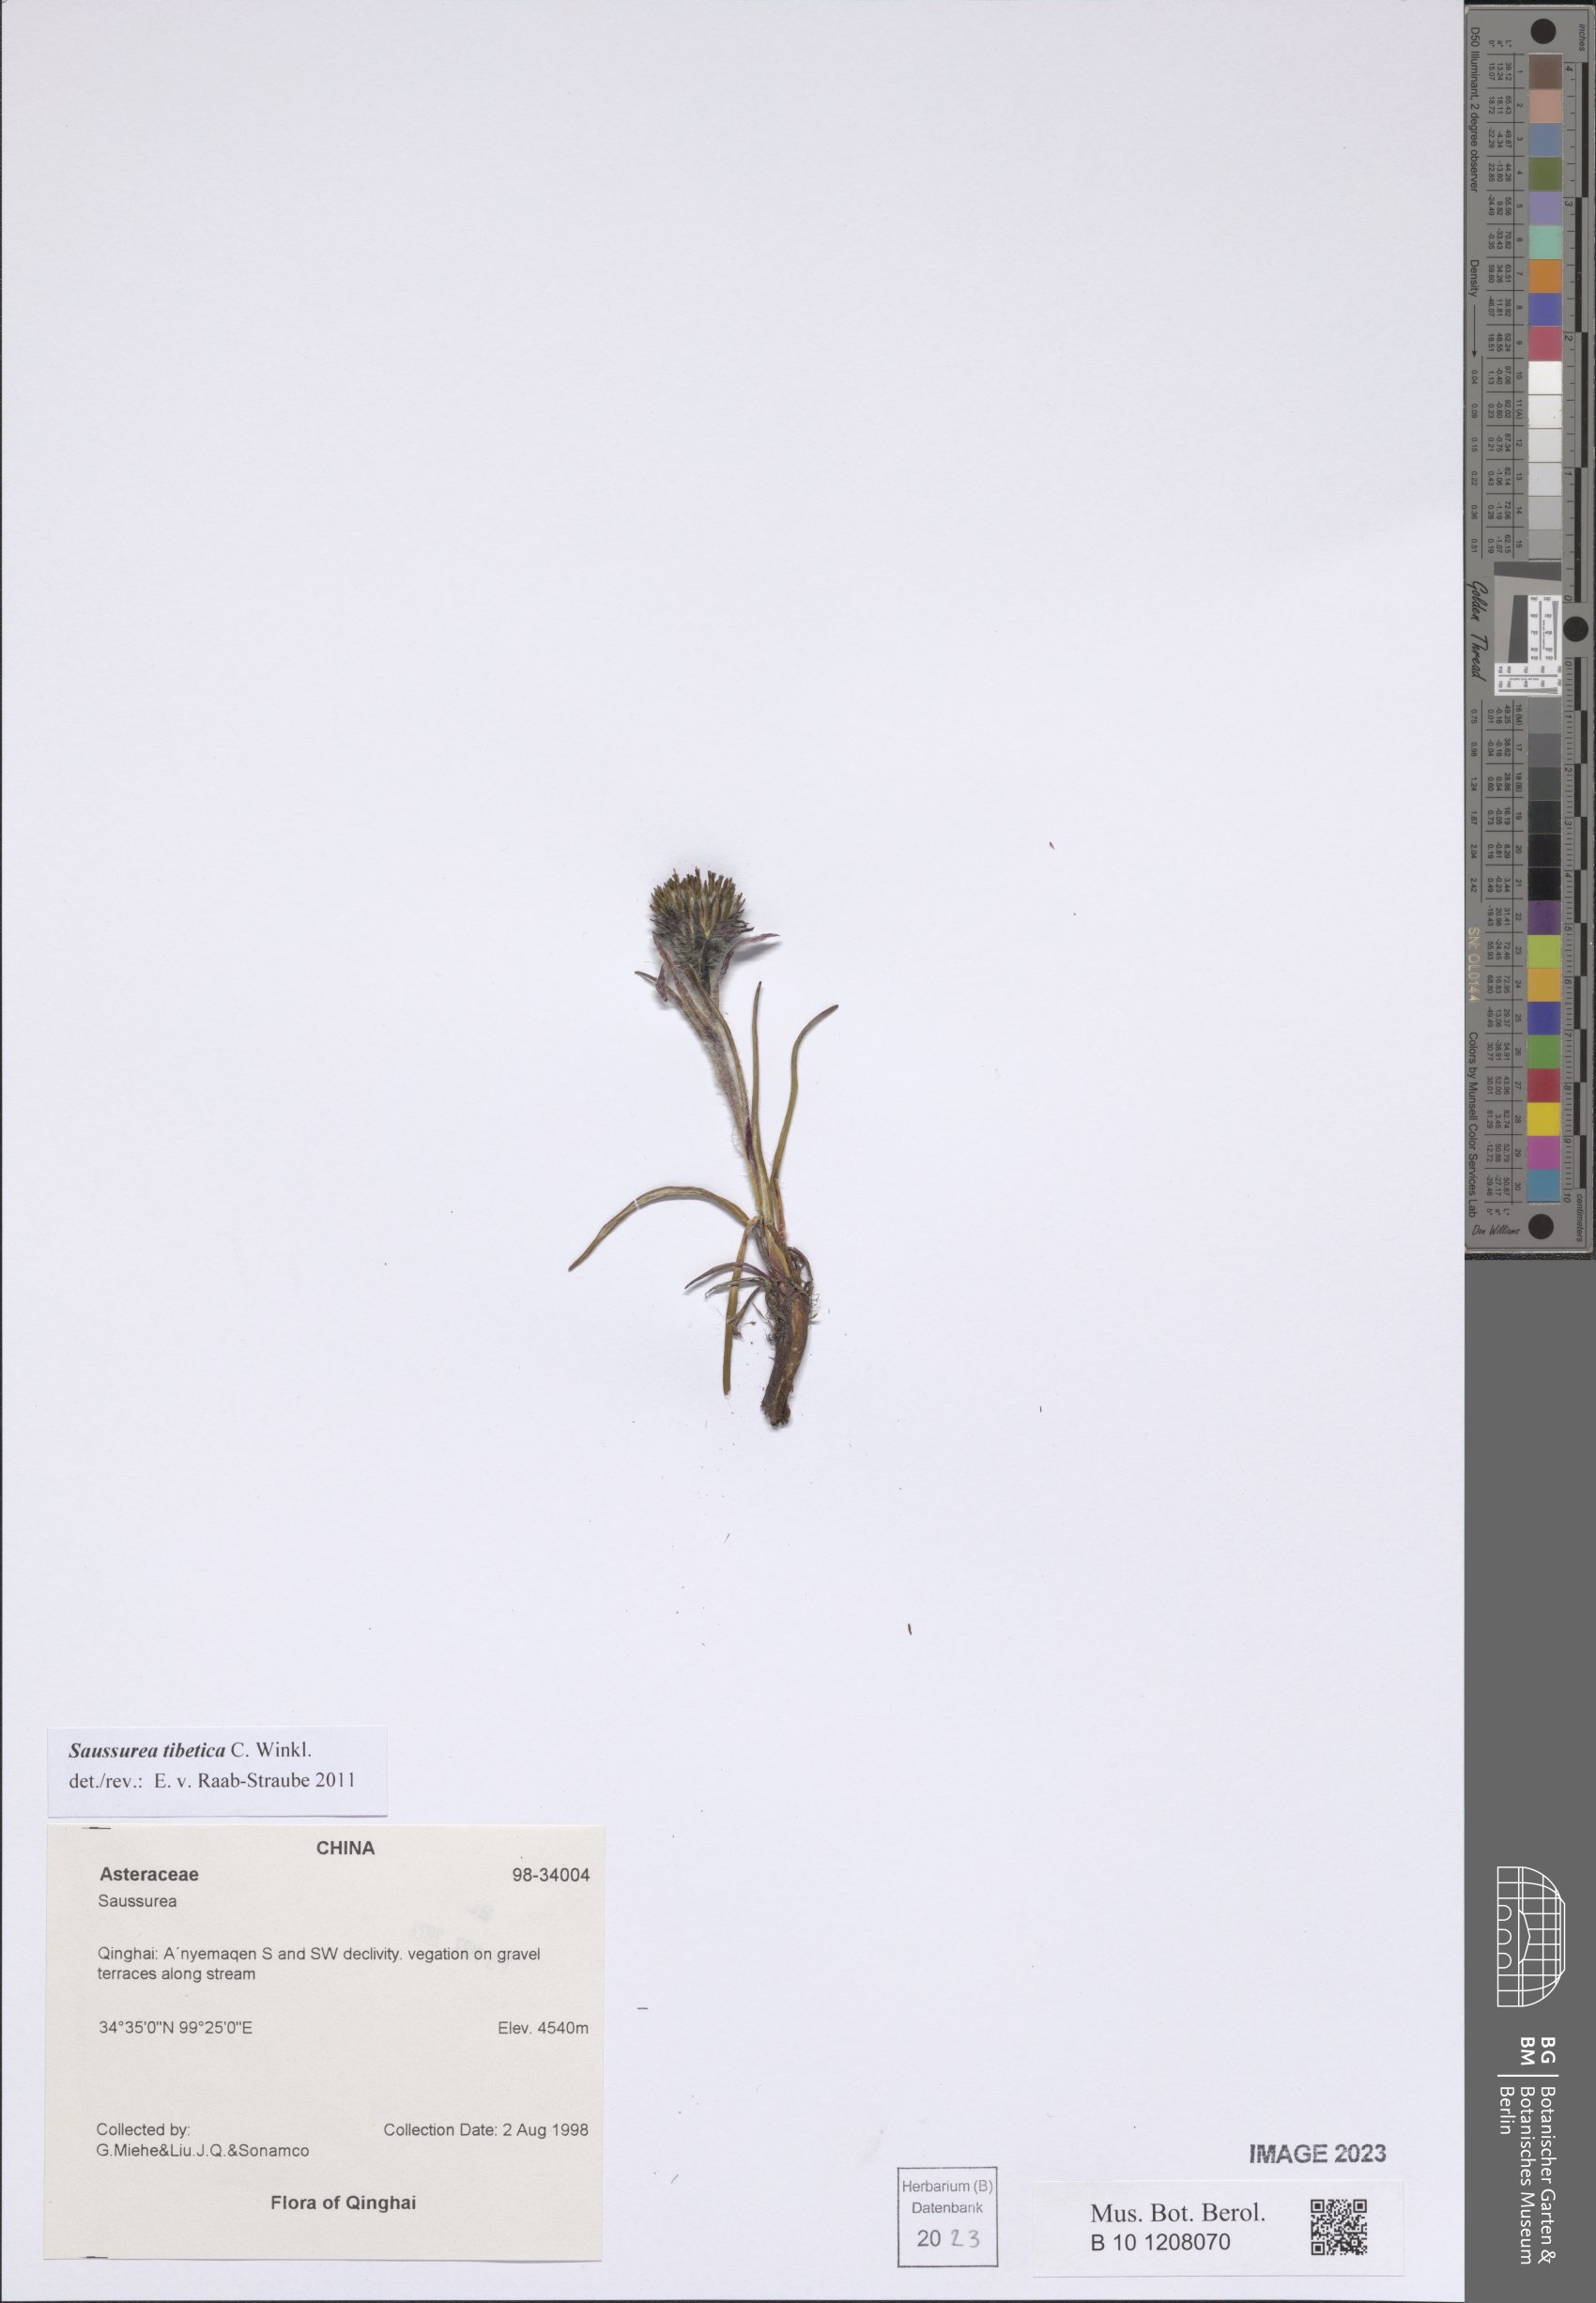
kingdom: Plantae
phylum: Tracheophyta
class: Magnoliopsida
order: Asterales
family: Asteraceae
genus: Saussurea
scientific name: Saussurea tibetica
